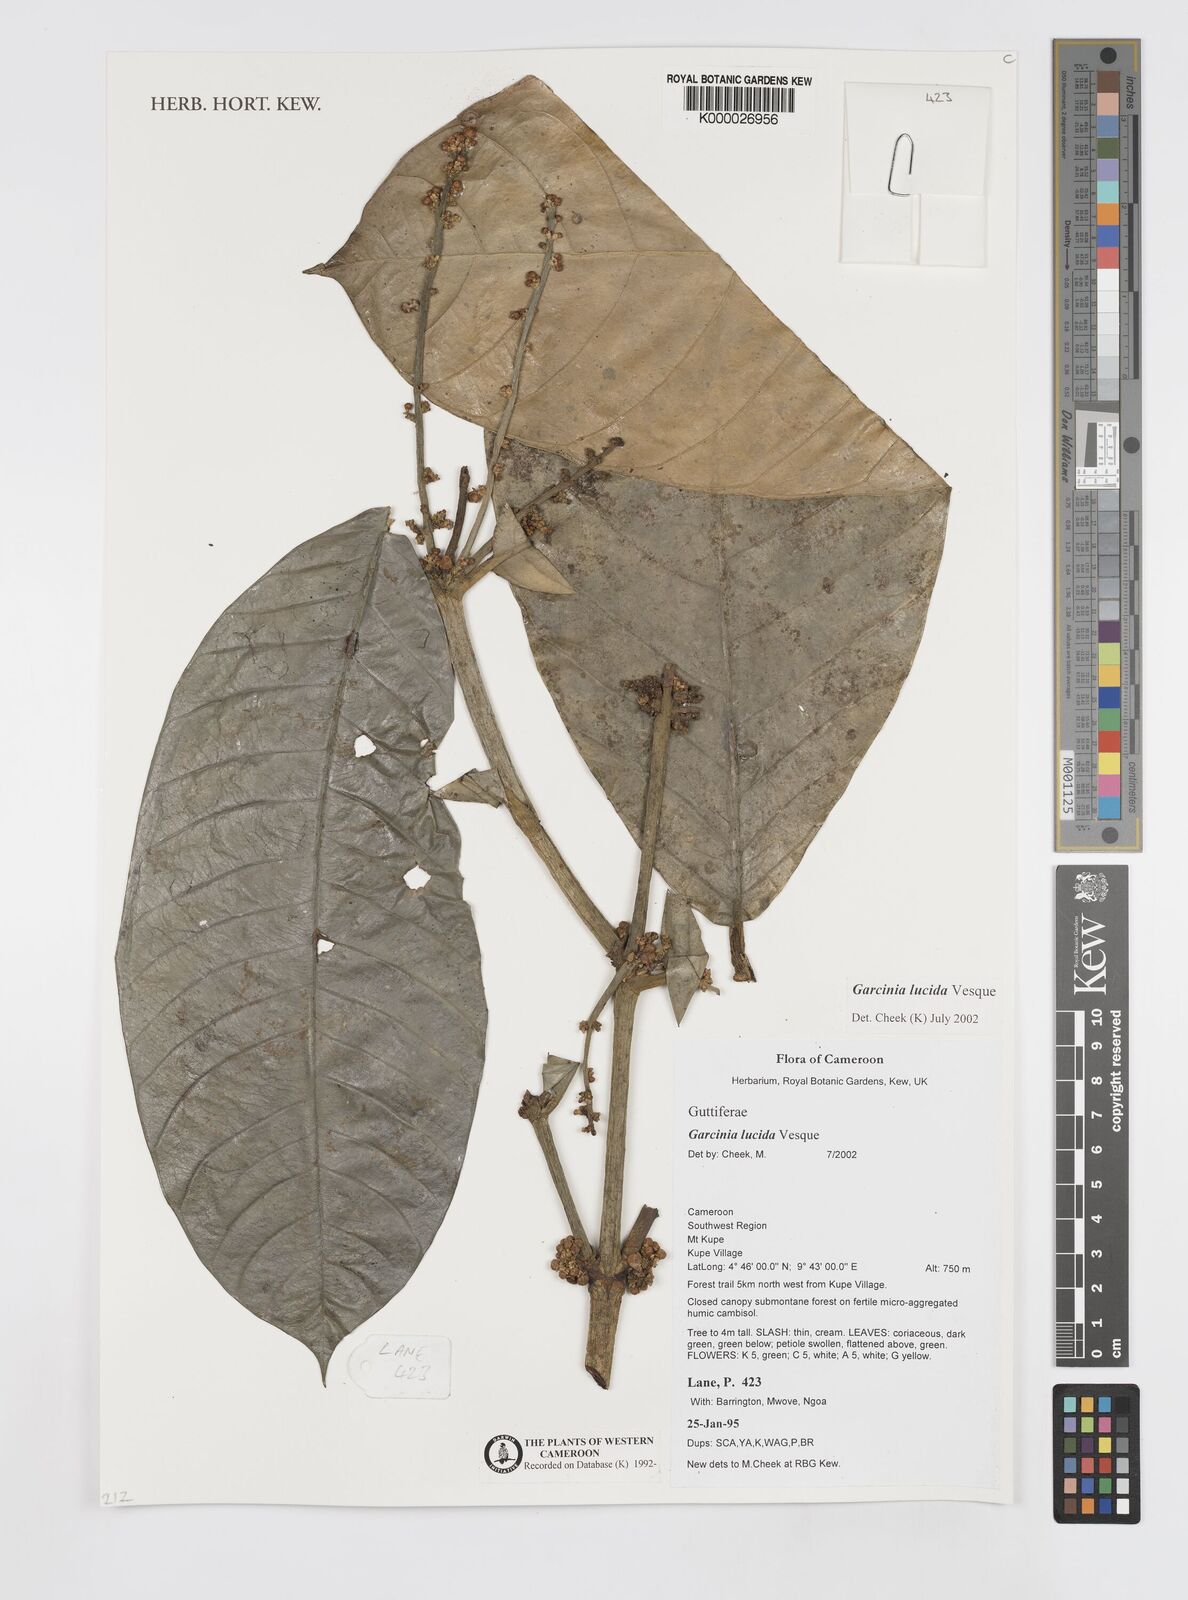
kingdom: Plantae
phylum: Tracheophyta
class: Magnoliopsida
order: Malpighiales
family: Clusiaceae
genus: Garcinia
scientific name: Garcinia lucida
